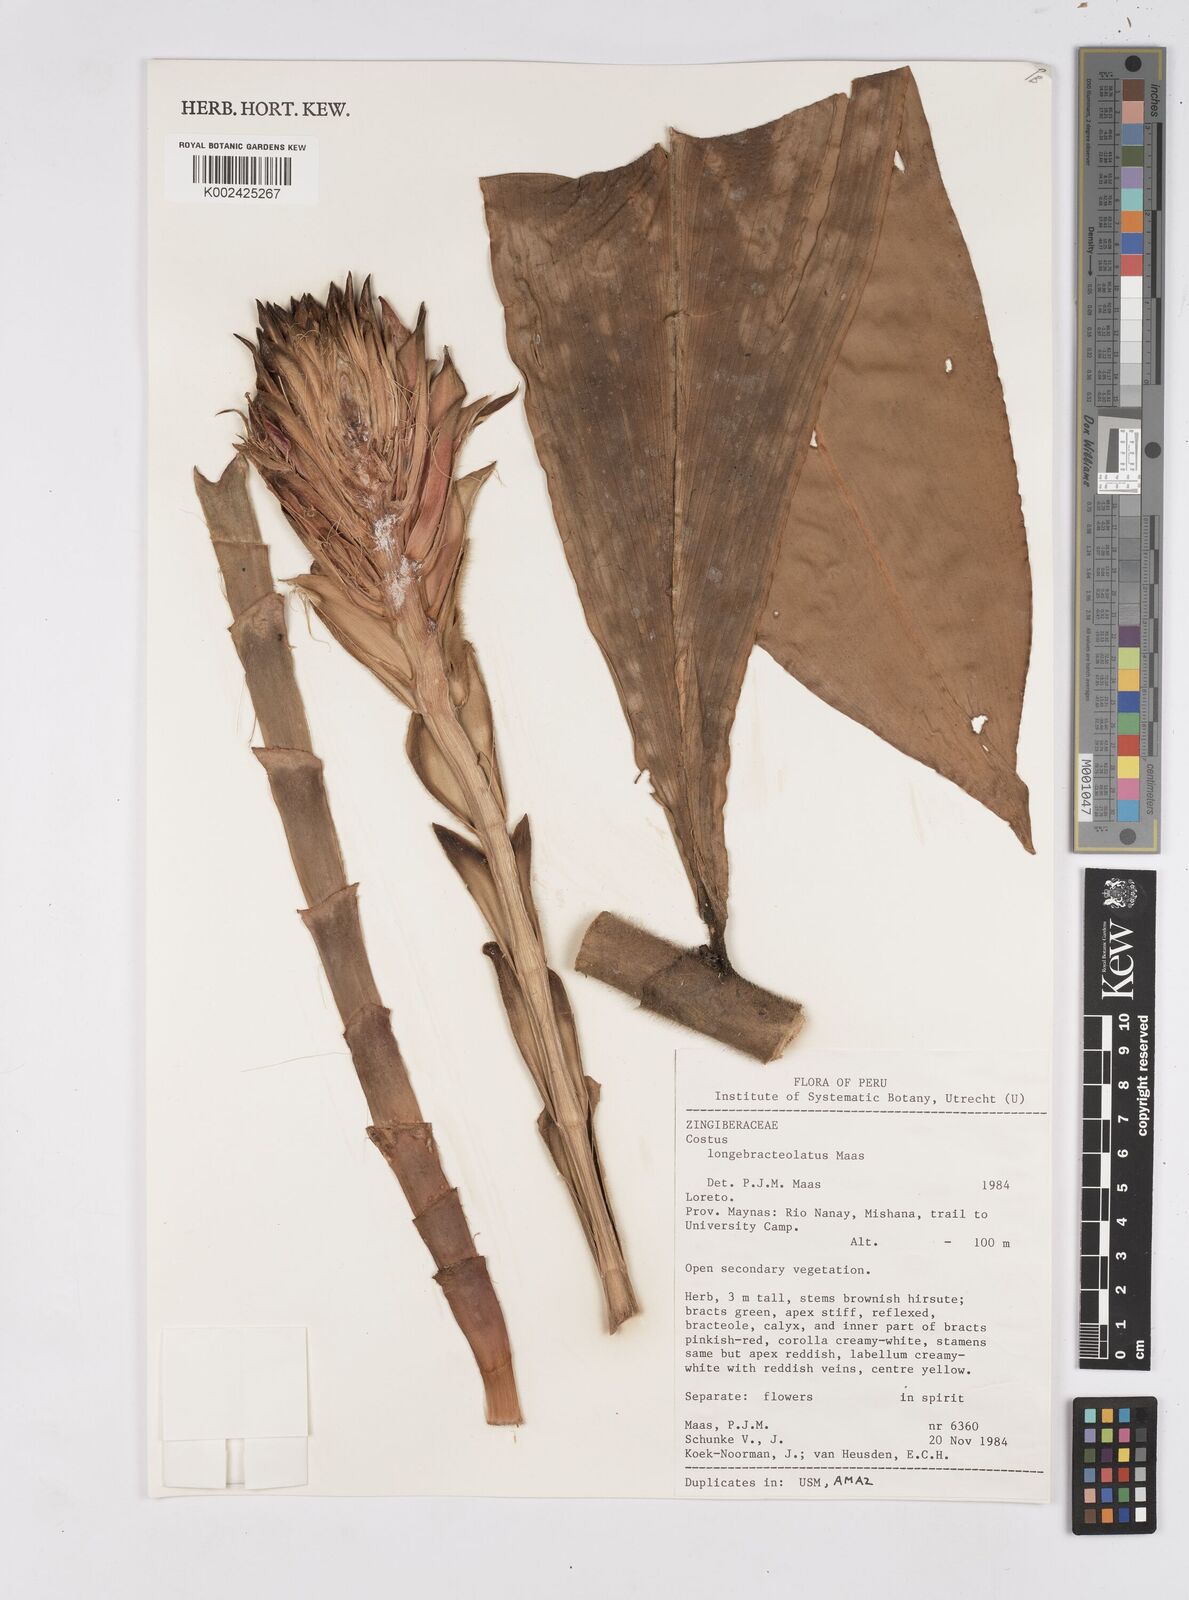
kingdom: Plantae
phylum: Tracheophyta
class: Liliopsida
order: Zingiberales
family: Costaceae
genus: Costus
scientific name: Costus longibracteolatus
